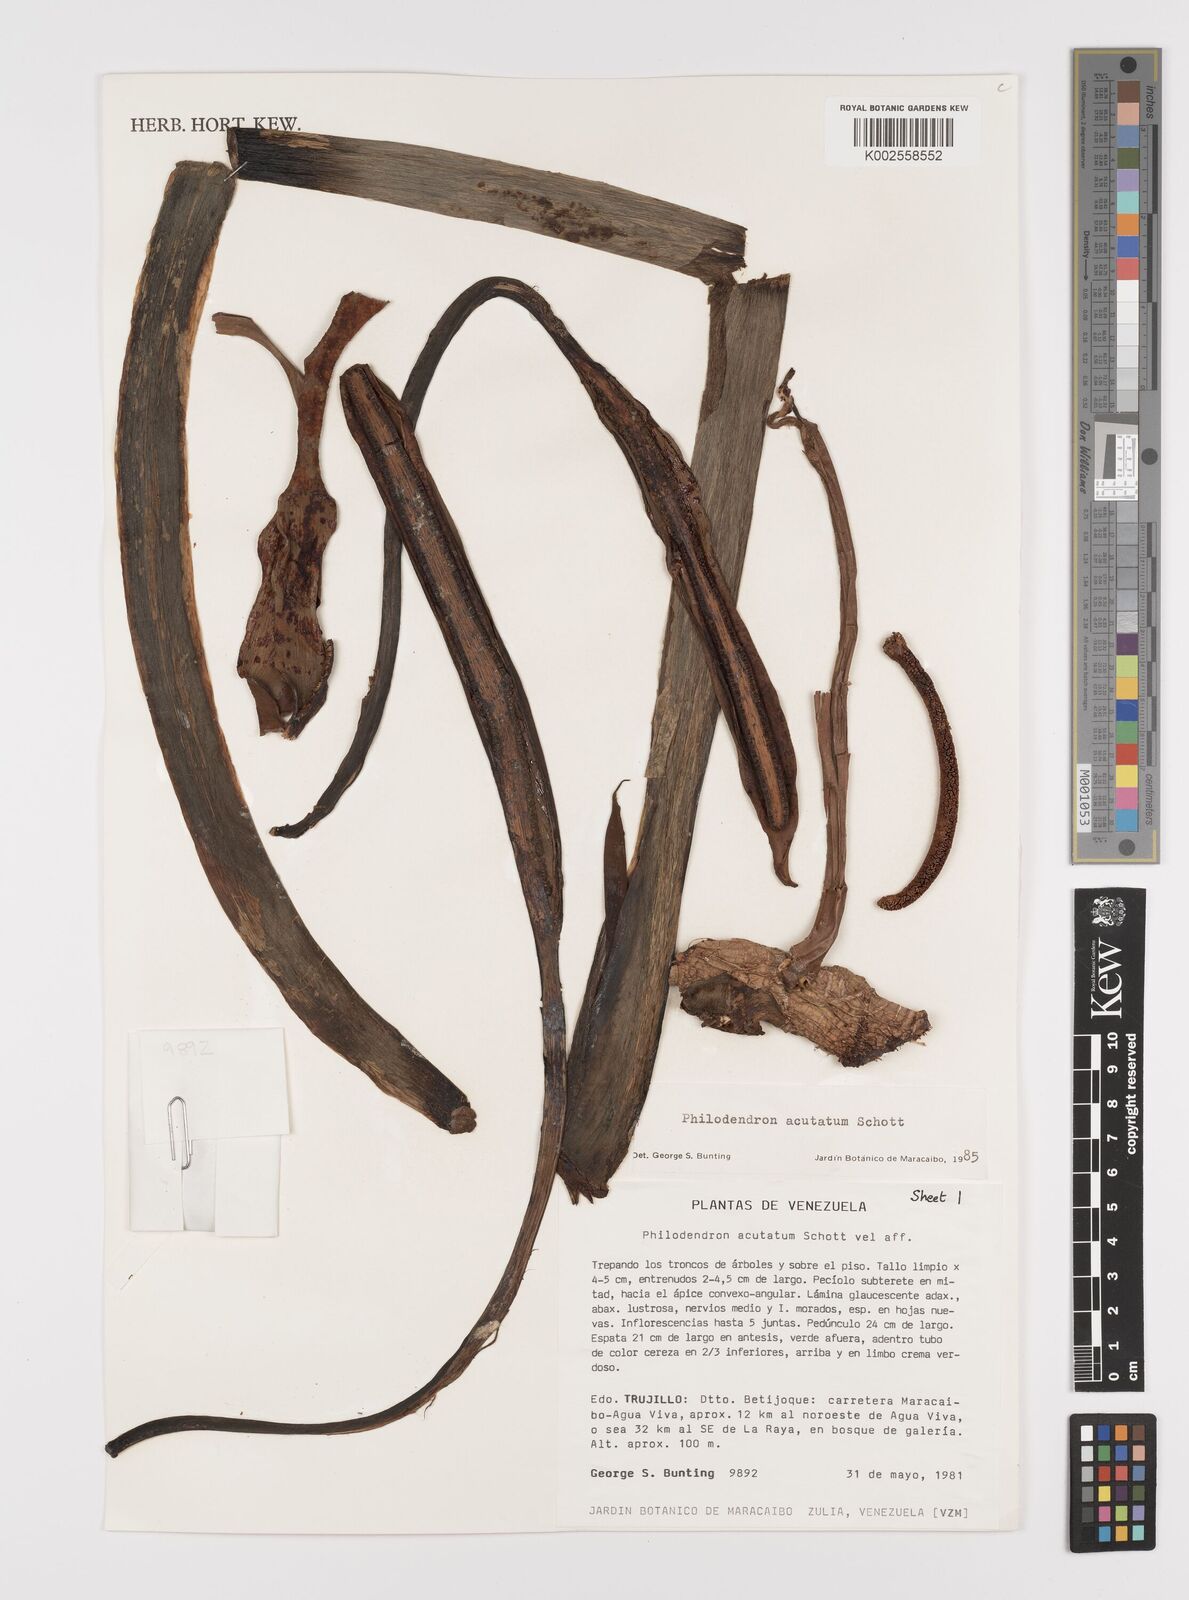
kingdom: Plantae
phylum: Tracheophyta
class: Liliopsida
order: Alismatales
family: Araceae
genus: Philodendron
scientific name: Philodendron quinquenervium
